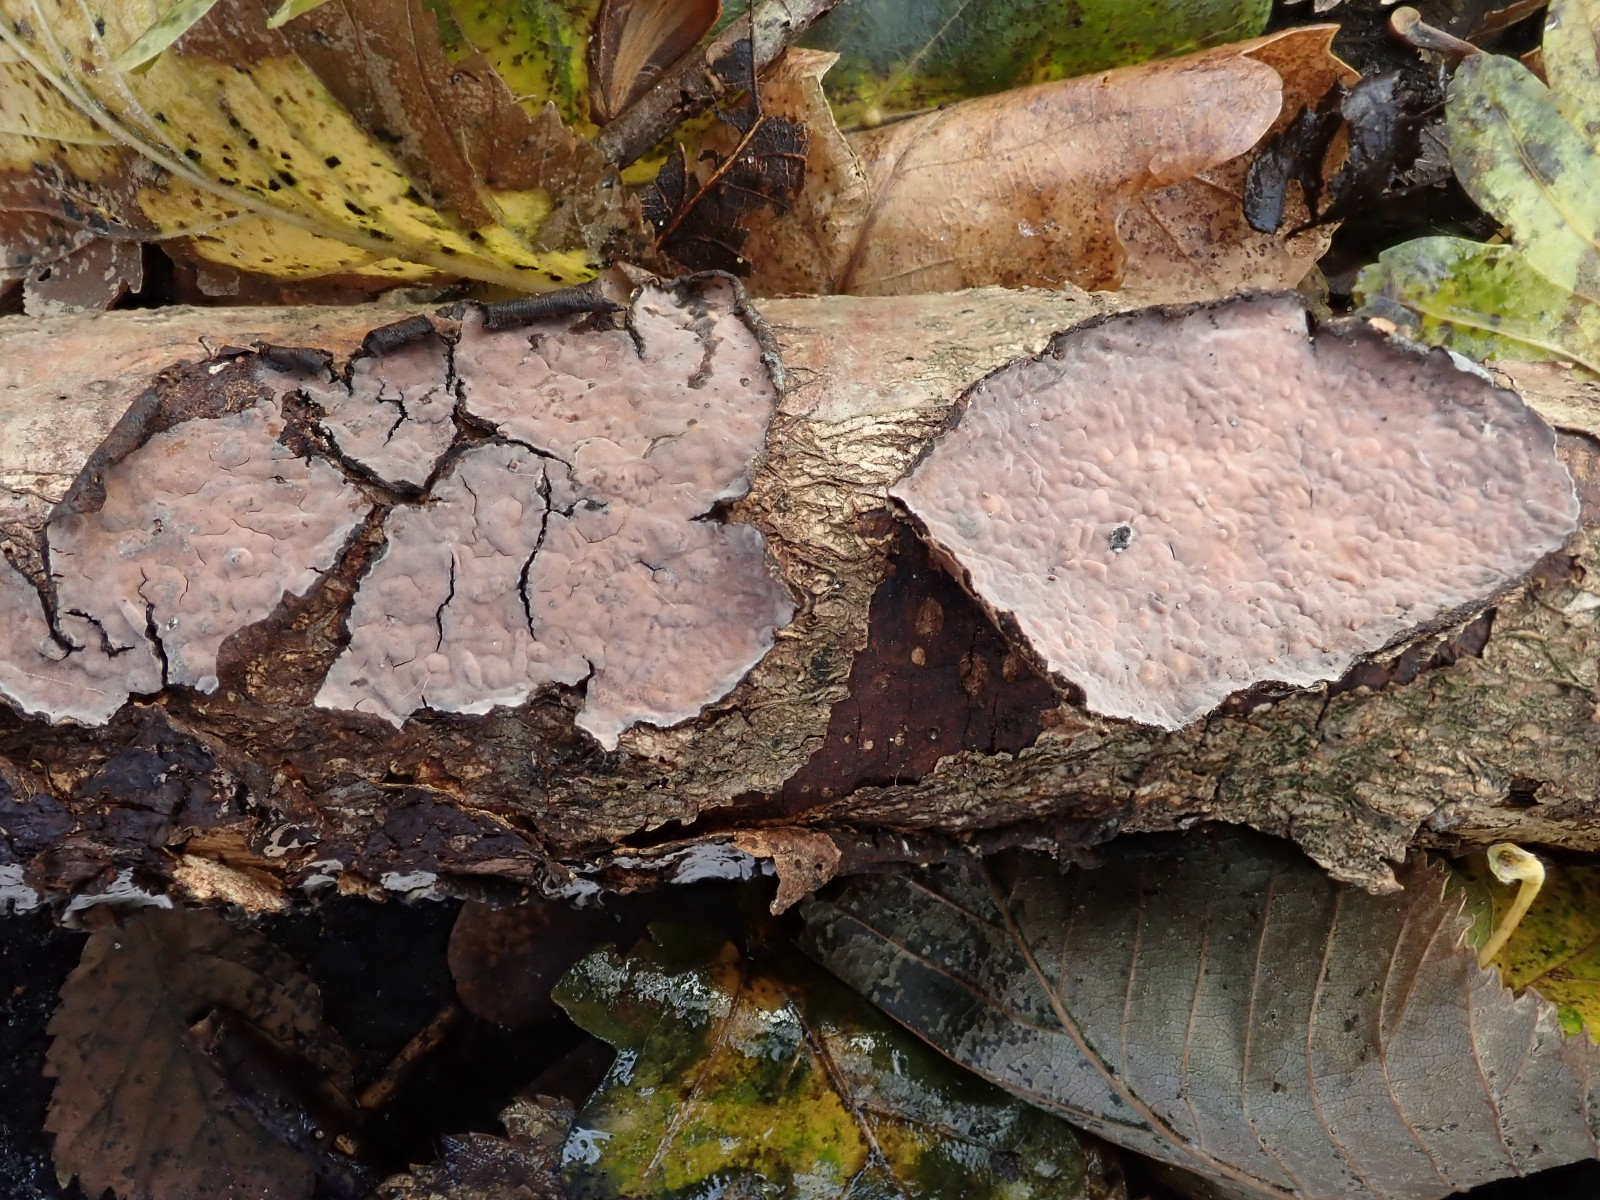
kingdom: Fungi
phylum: Basidiomycota
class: Agaricomycetes
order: Russulales
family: Peniophoraceae
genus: Peniophora
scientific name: Peniophora quercina
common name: ege-voksskind
